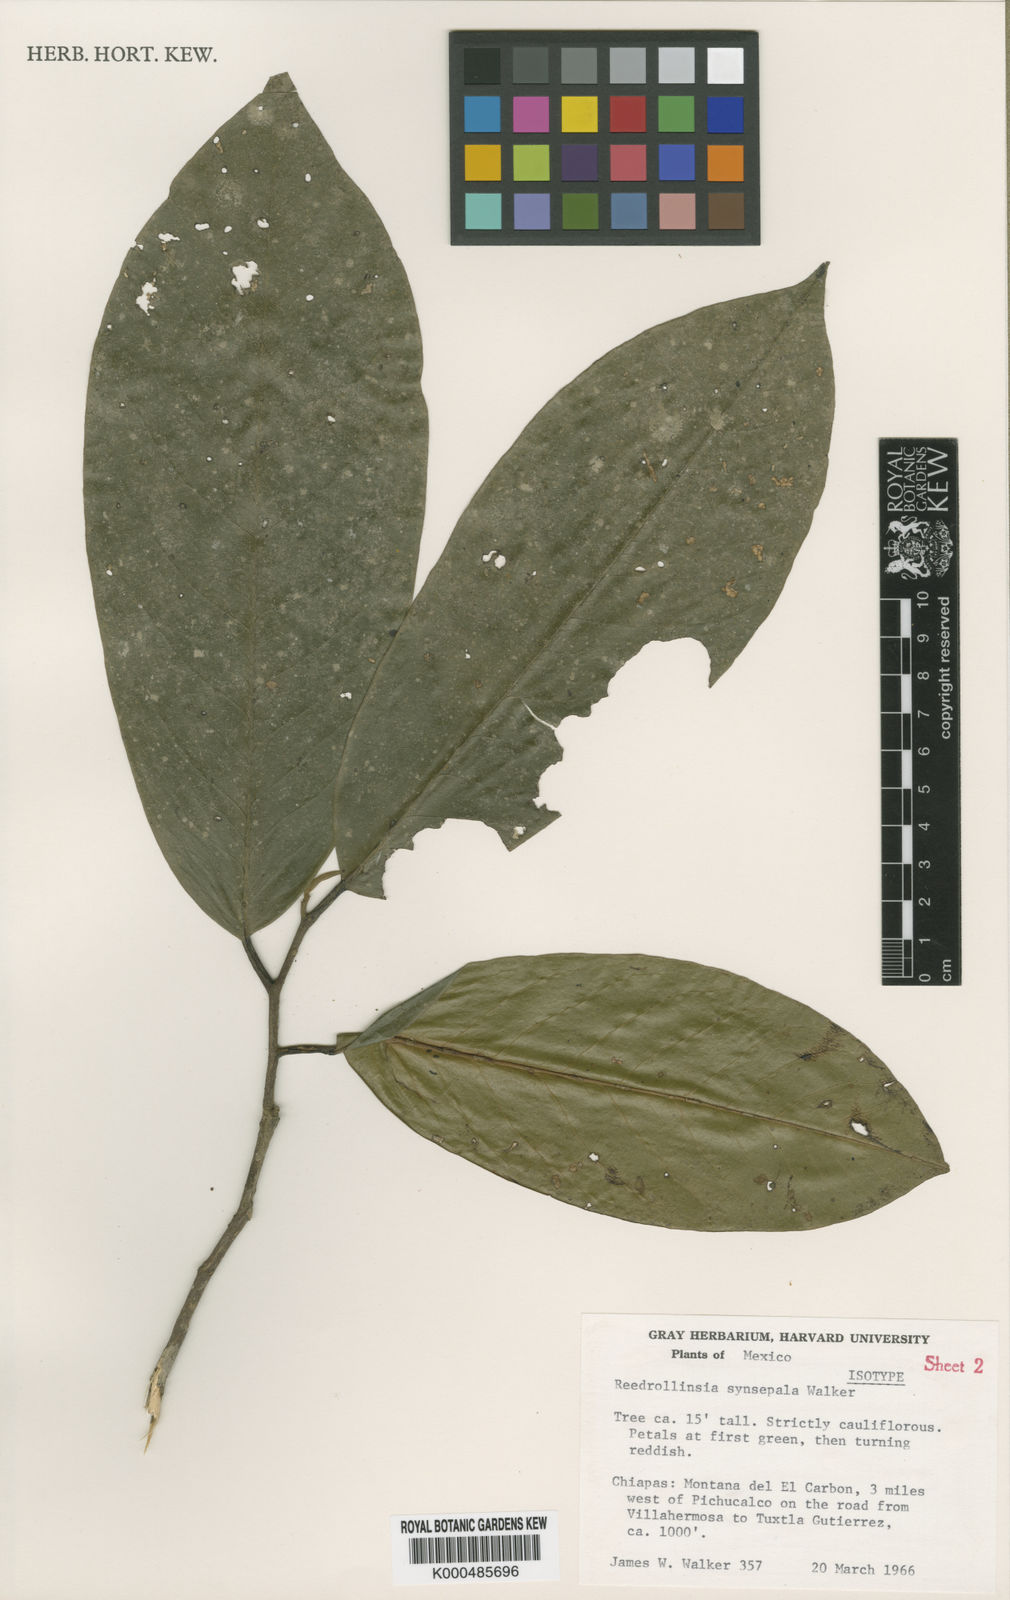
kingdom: Plantae
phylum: Tracheophyta
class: Magnoliopsida
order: Magnoliales
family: Annonaceae
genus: Stenanona
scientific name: Stenanona
